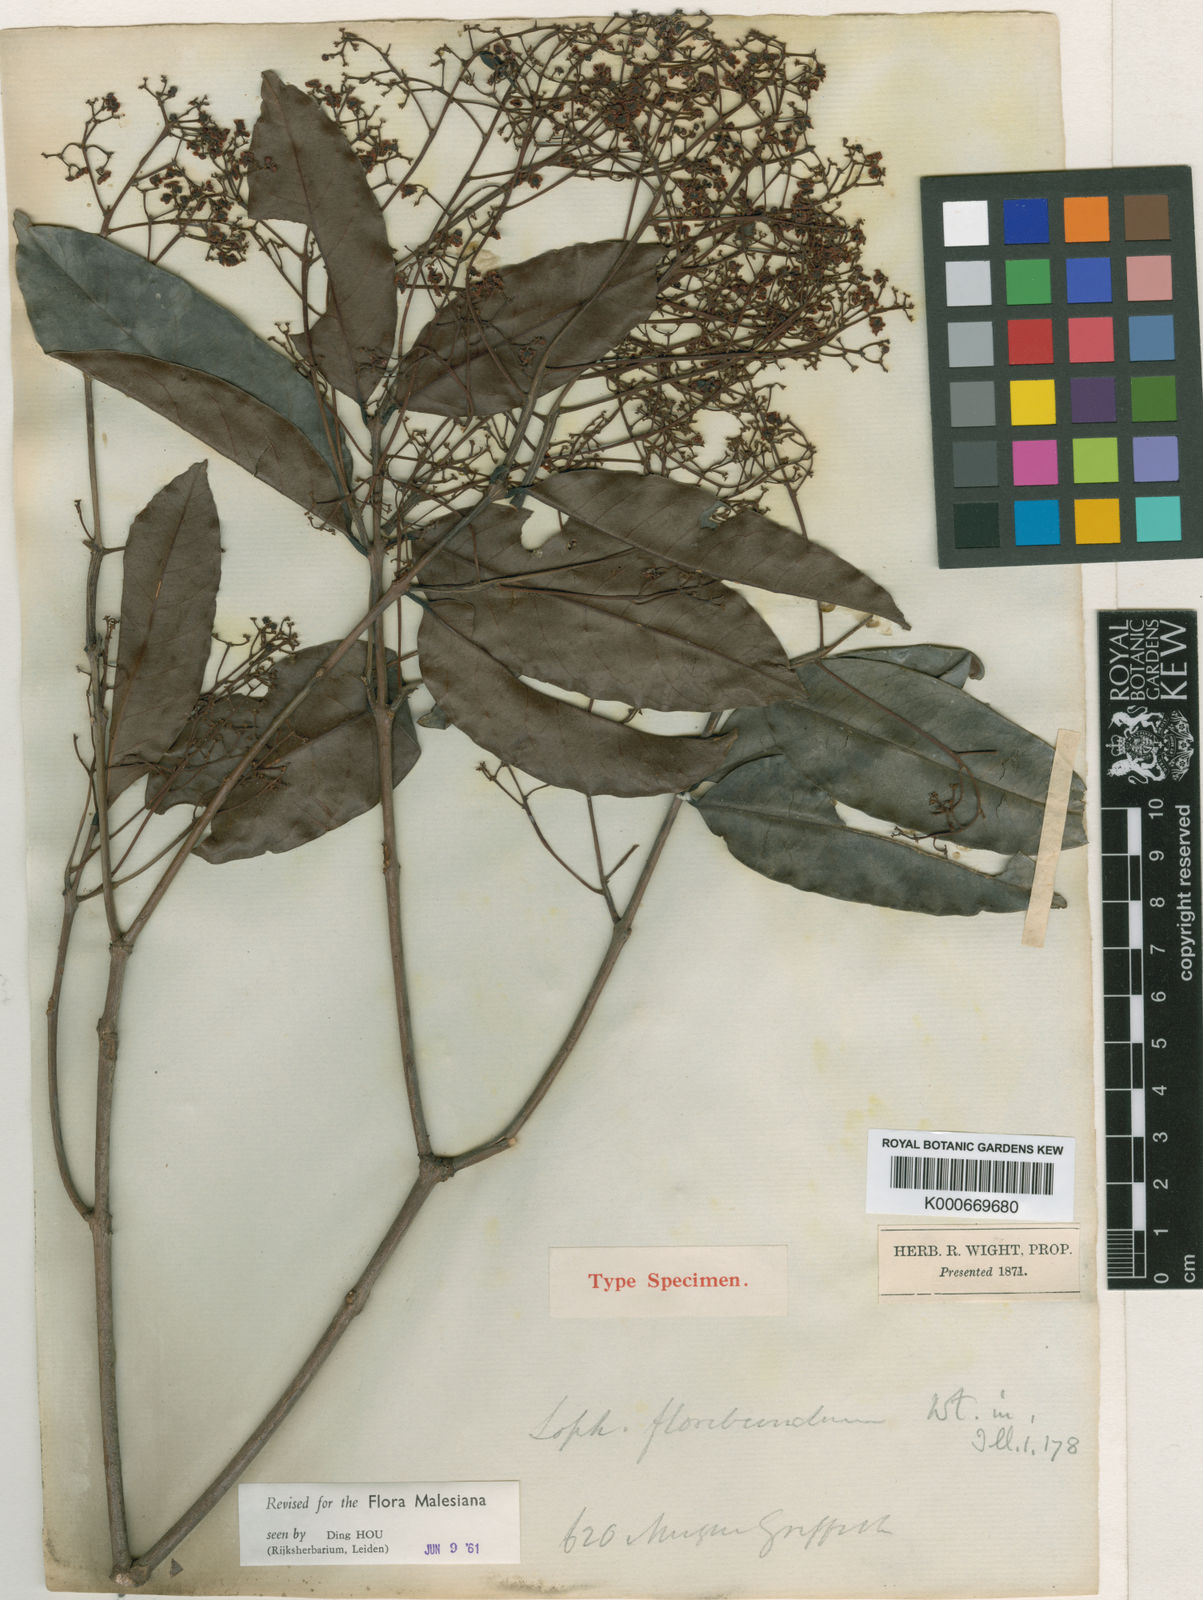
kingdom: Plantae
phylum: Tracheophyta
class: Magnoliopsida
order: Celastrales
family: Celastraceae
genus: Lophopetalum
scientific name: Lophopetalum floribundum
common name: Perupok
